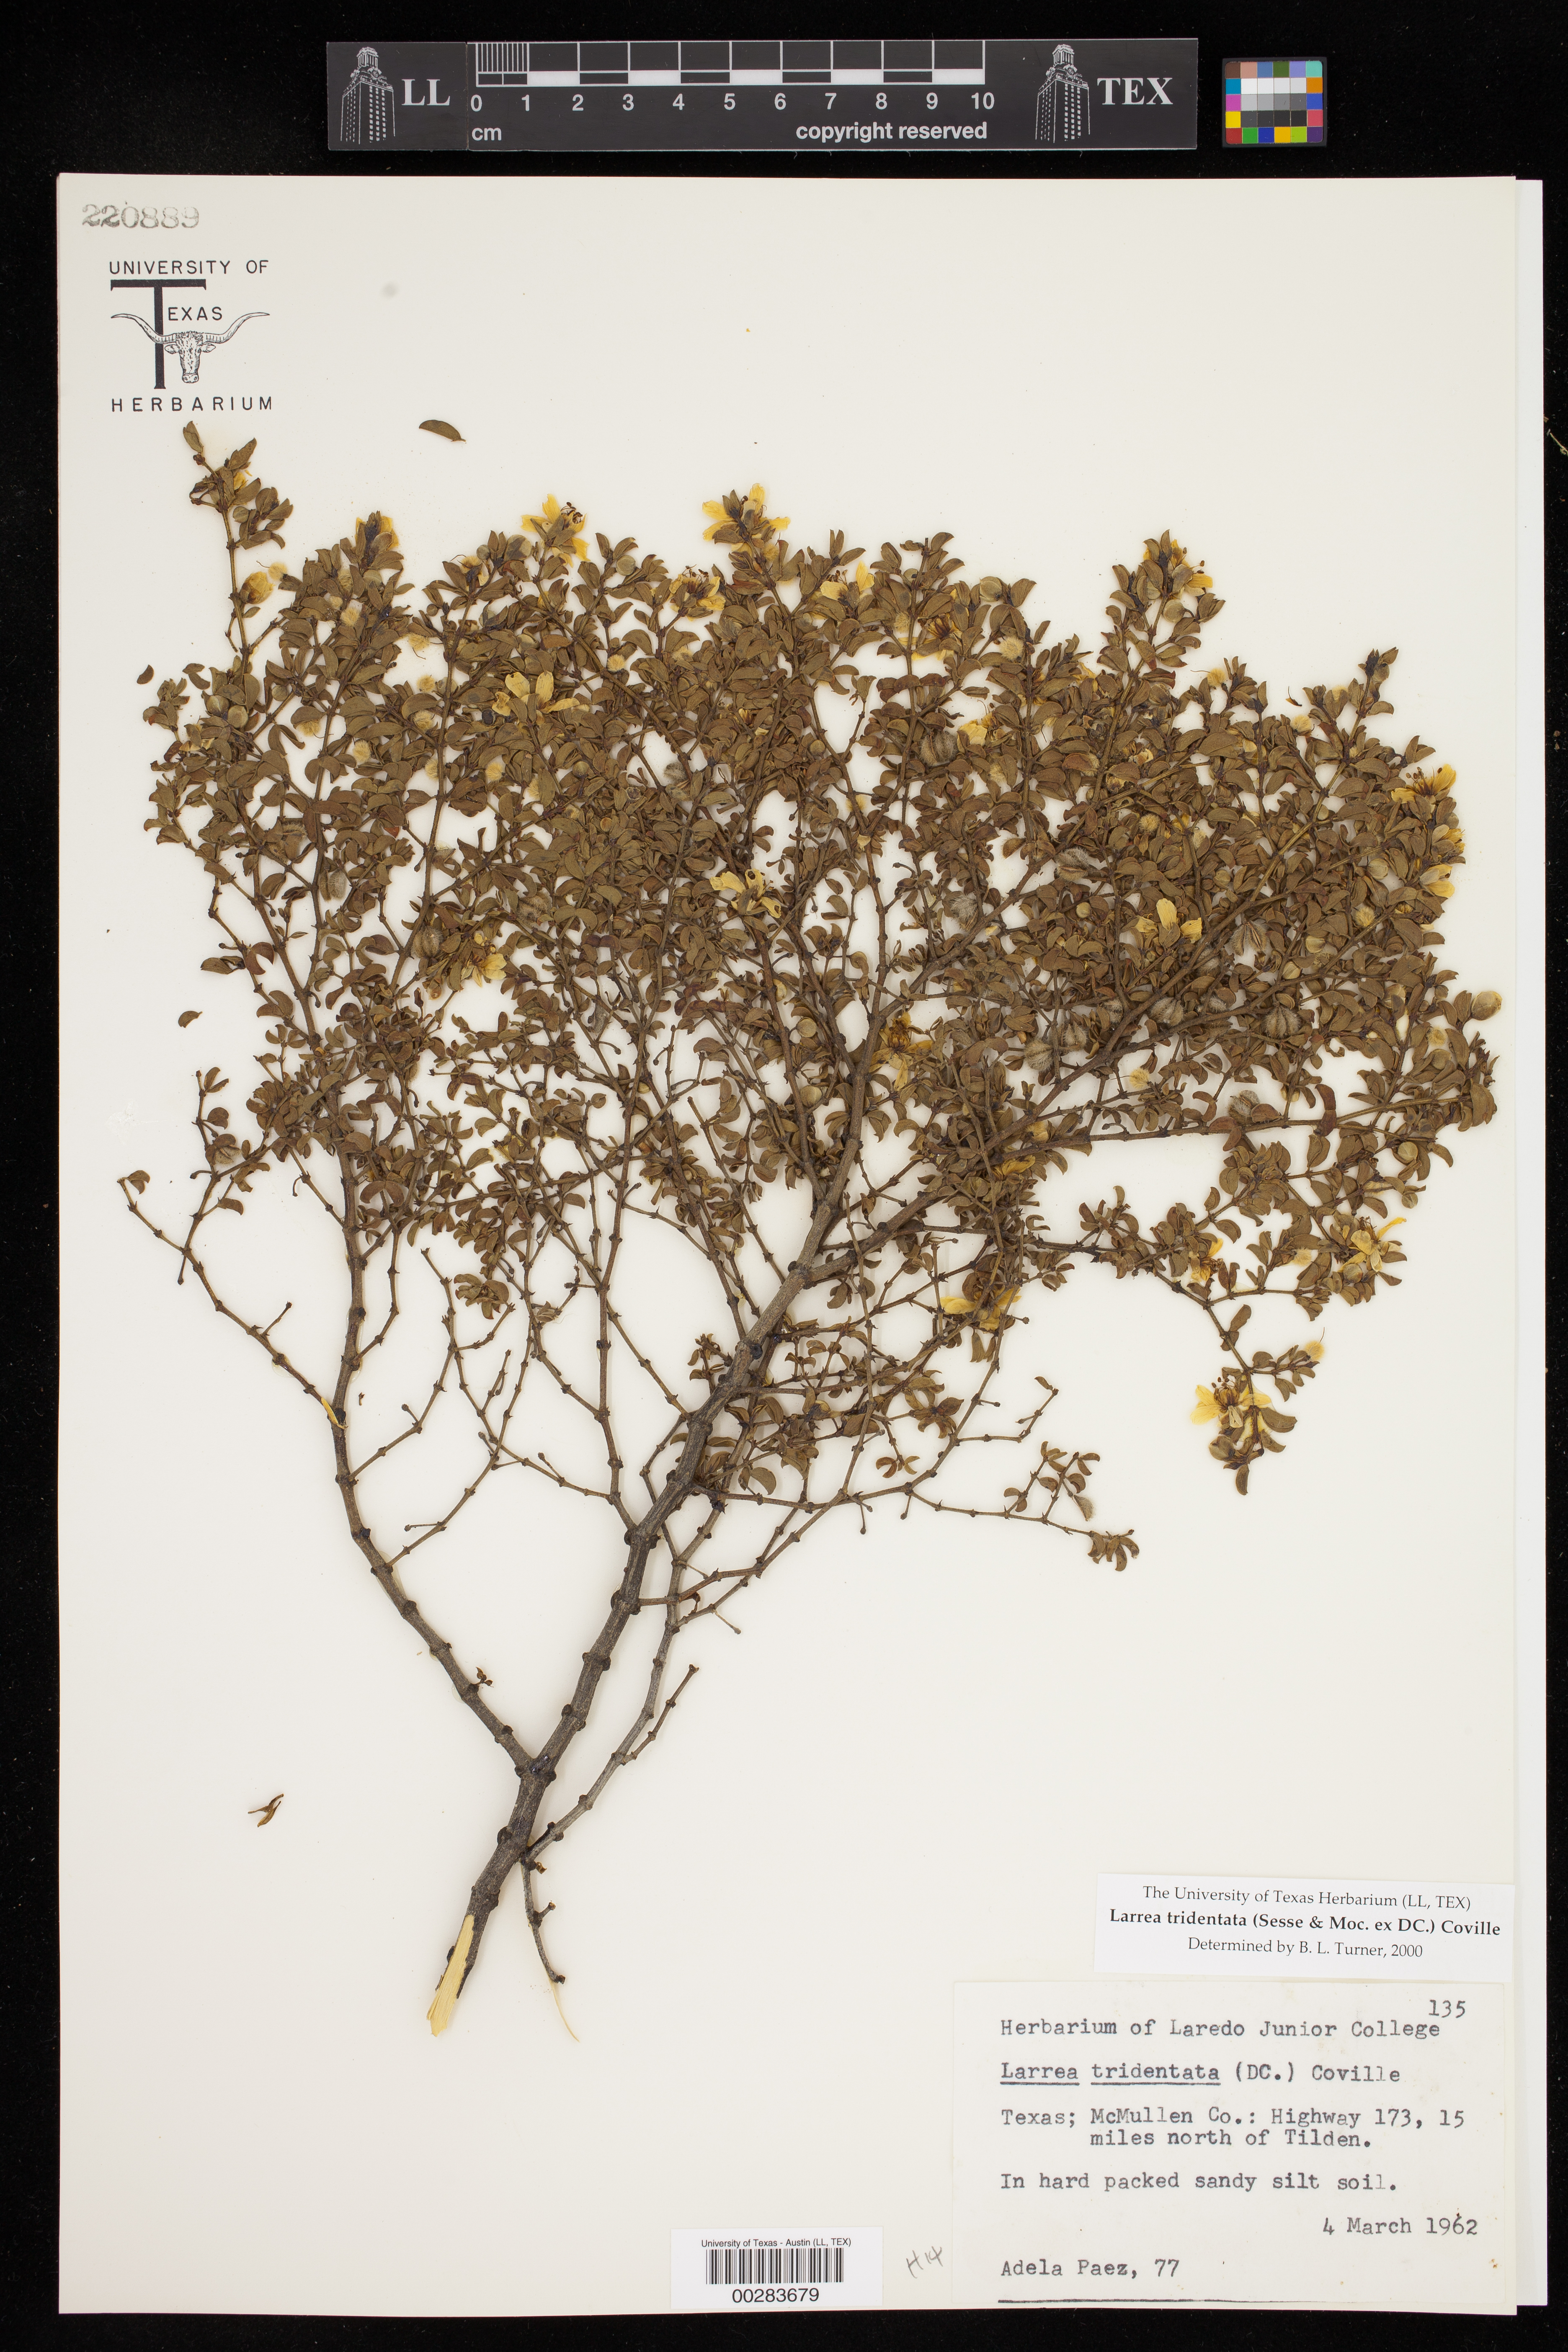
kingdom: Plantae
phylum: Tracheophyta
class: Magnoliopsida
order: Zygophyllales
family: Zygophyllaceae
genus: Larrea
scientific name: Larrea tridentata
